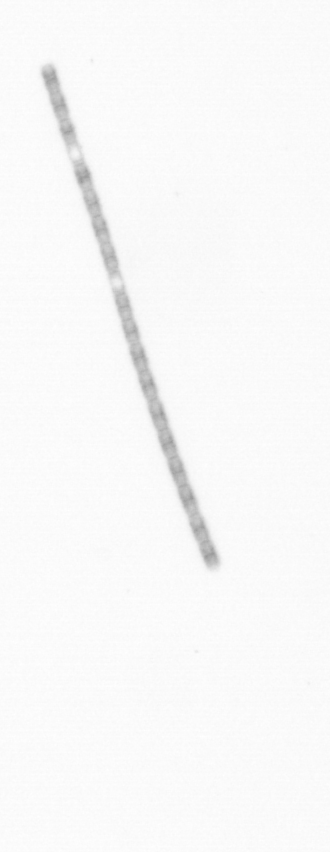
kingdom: Chromista
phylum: Ochrophyta
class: Bacillariophyceae
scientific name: Bacillariophyceae
